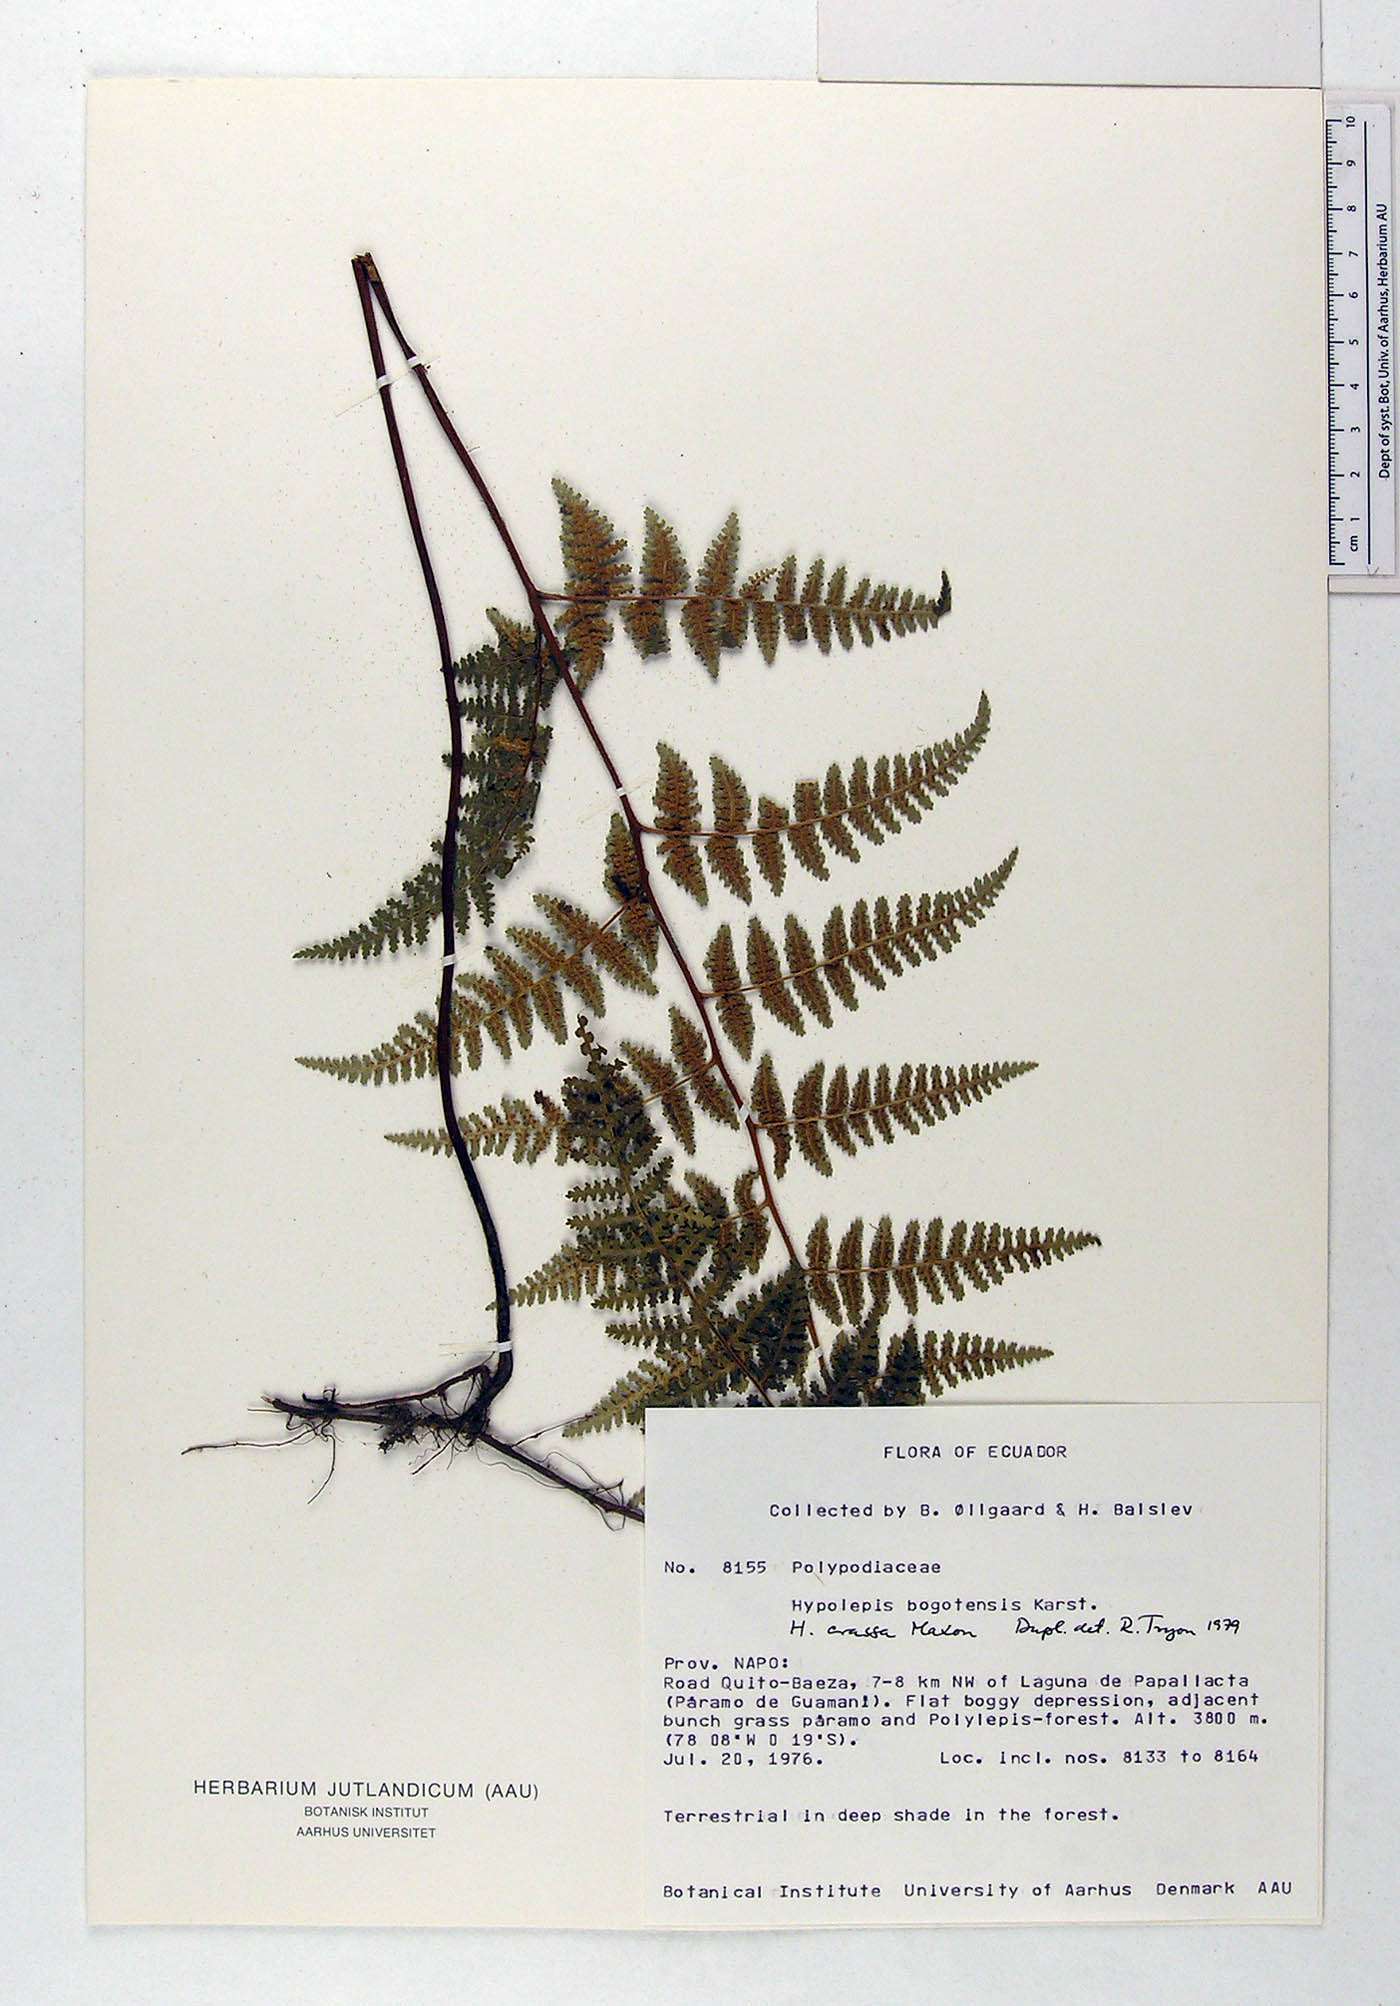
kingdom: Plantae
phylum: Tracheophyta
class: Polypodiopsida
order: Polypodiales
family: Dennstaedtiaceae
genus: Hypolepis
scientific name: Hypolepis crassa
